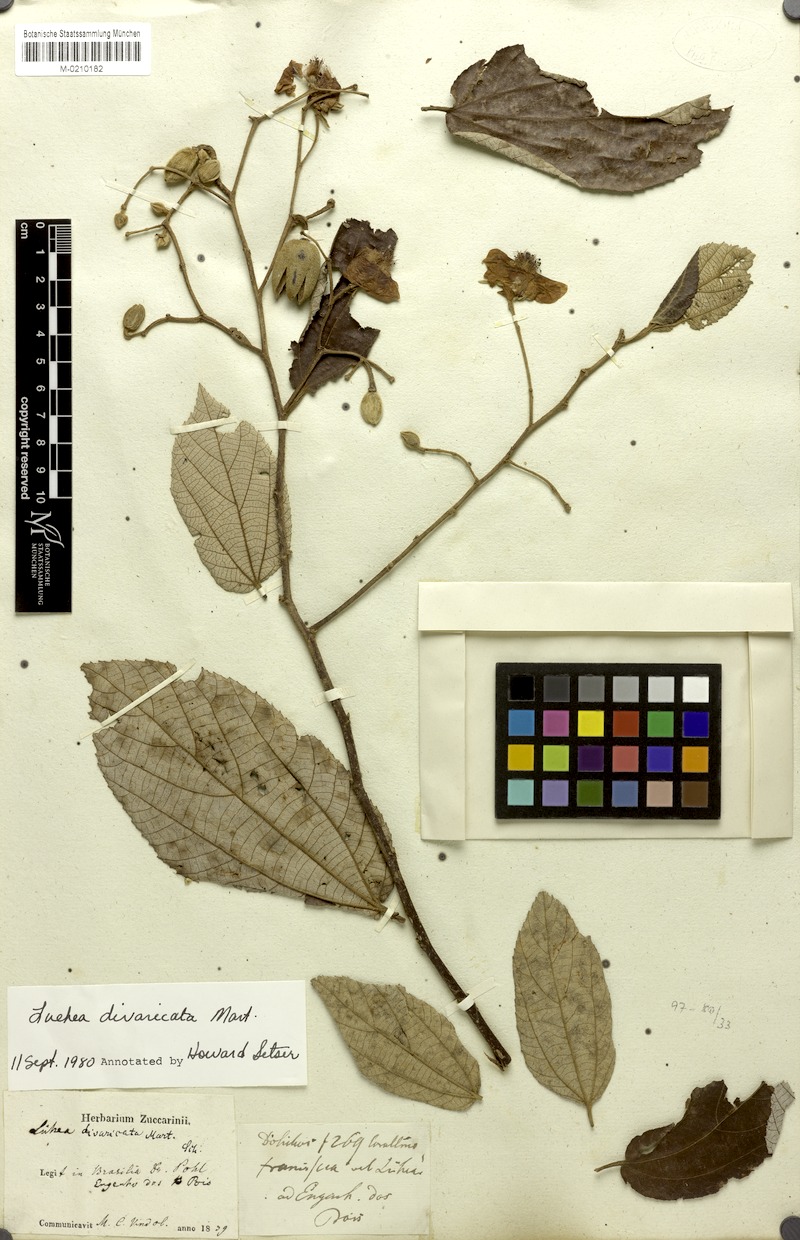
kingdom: Plantae
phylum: Tracheophyta
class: Magnoliopsida
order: Malvales
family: Malvaceae
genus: Luehea
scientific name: Luehea divaricata
